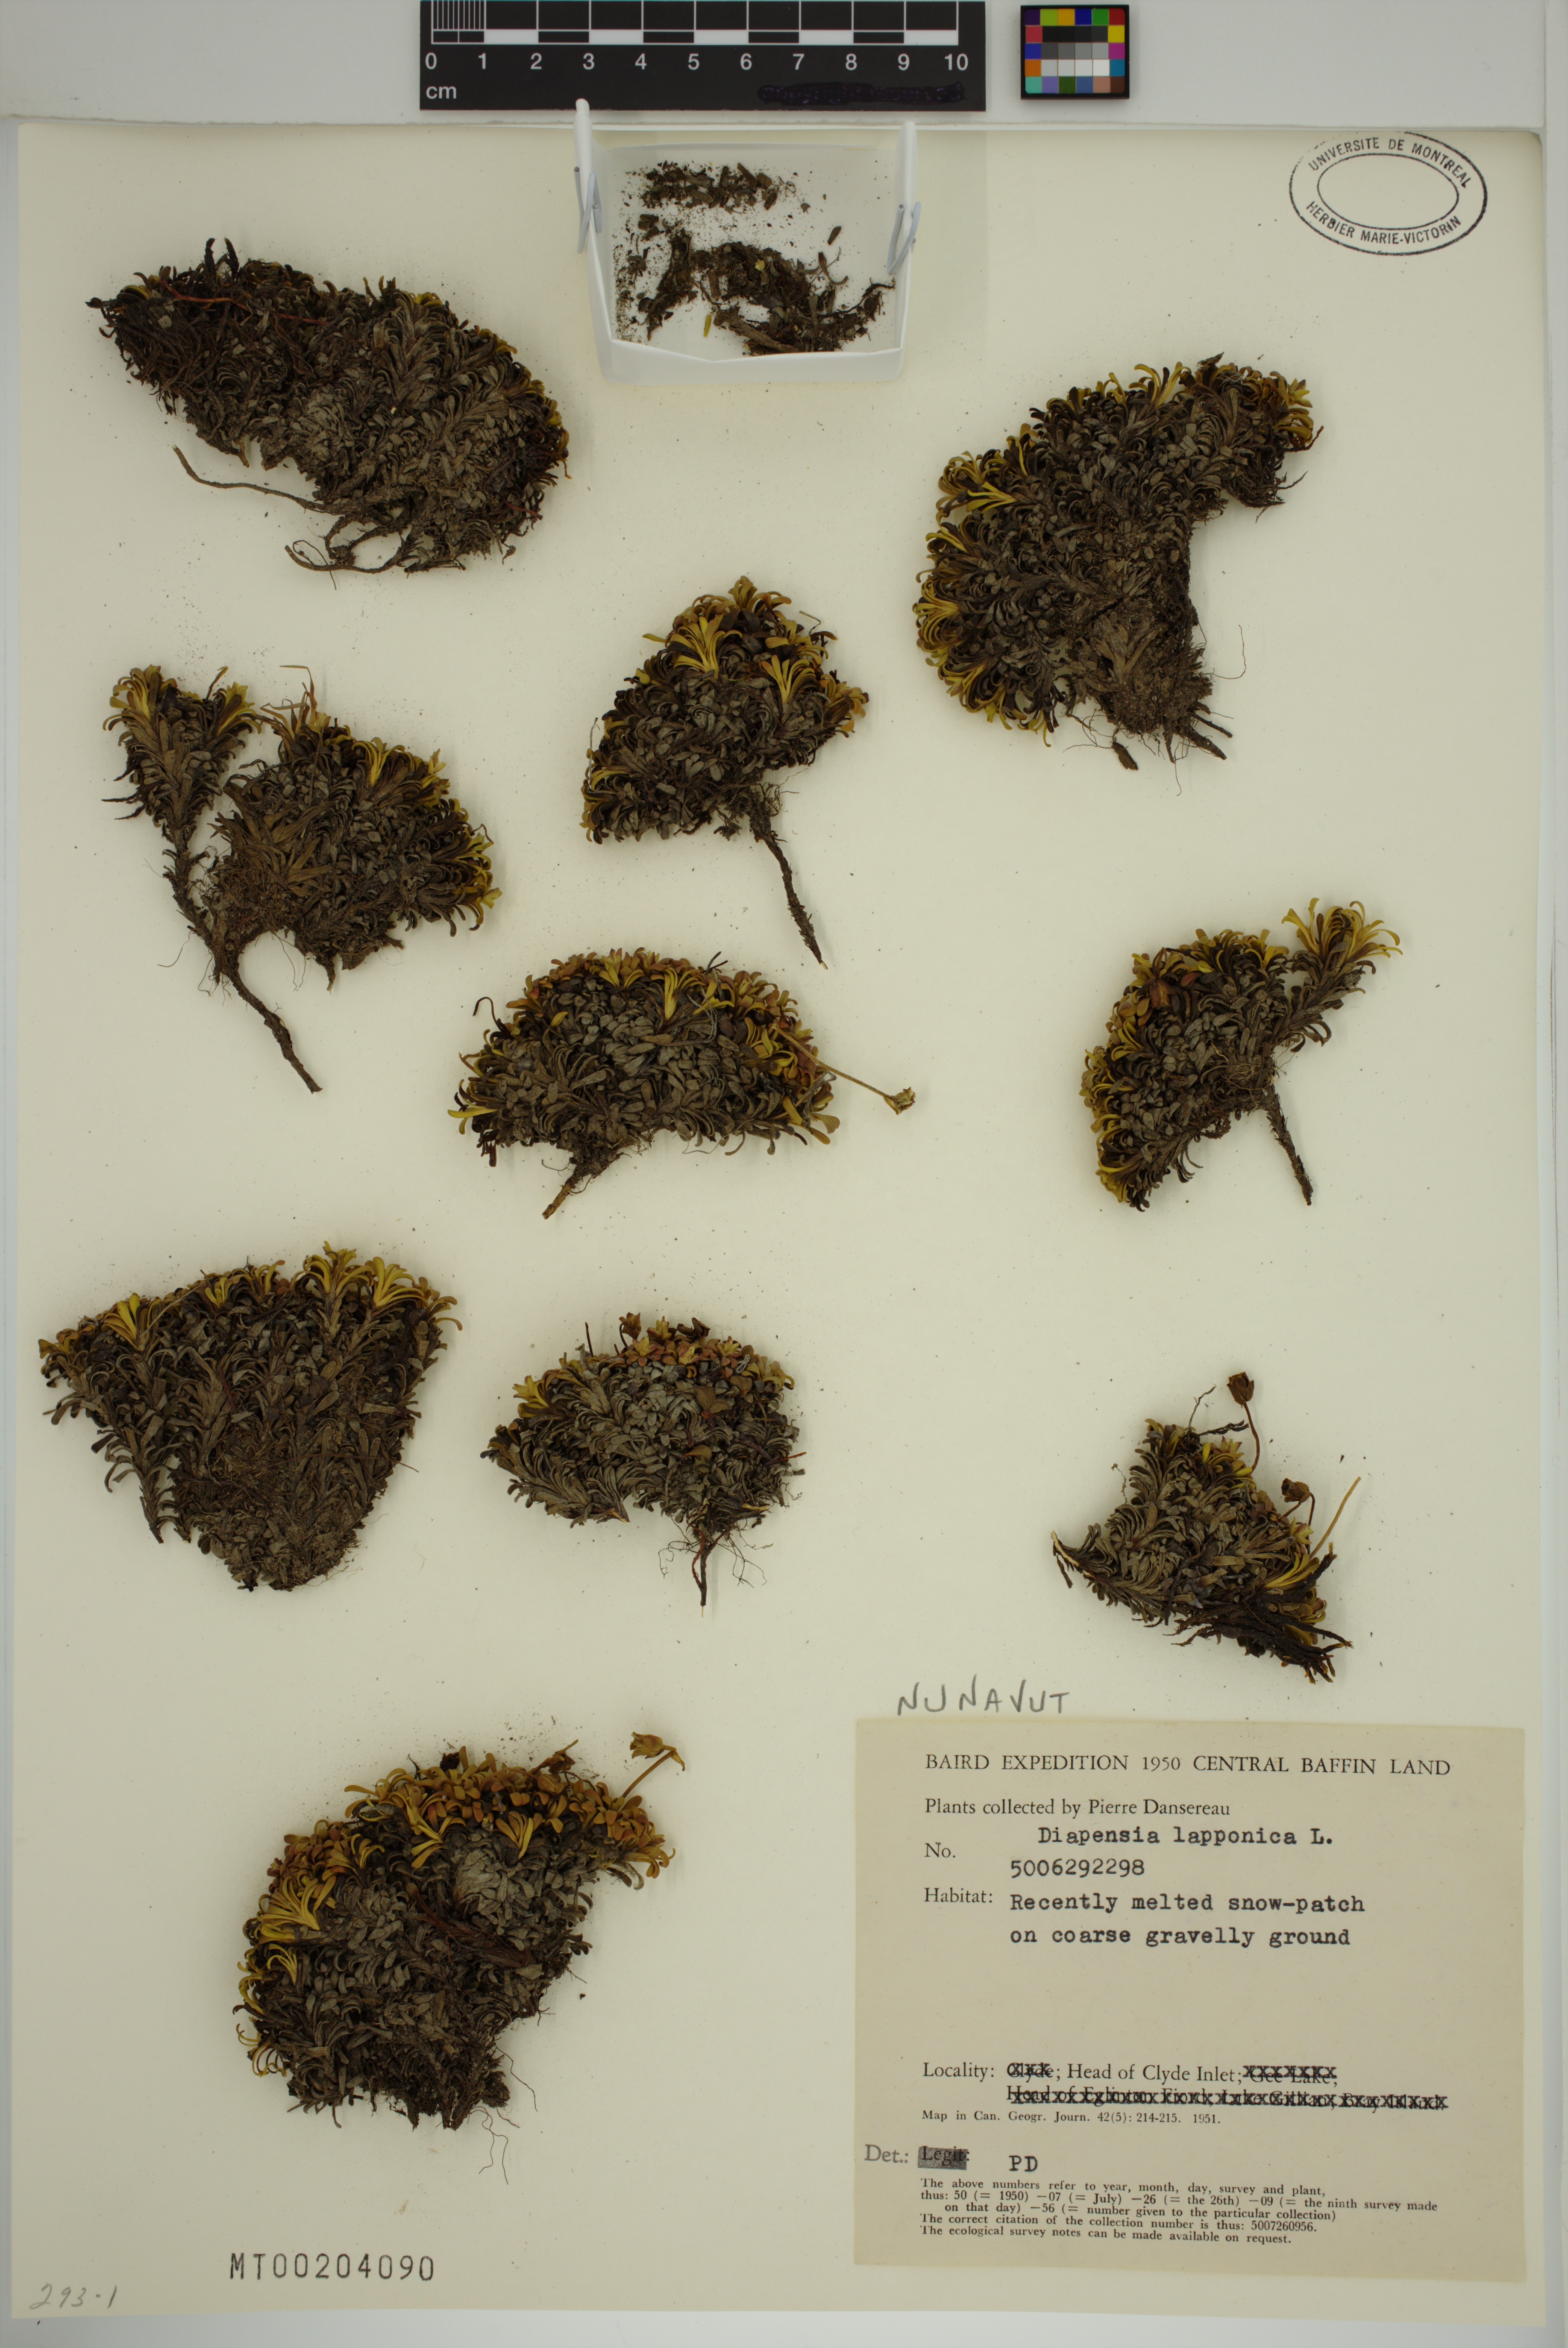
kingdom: Plantae
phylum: Tracheophyta
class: Magnoliopsida
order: Ericales
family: Diapensiaceae
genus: Diapensia
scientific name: Diapensia lapponica
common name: Diapensia
